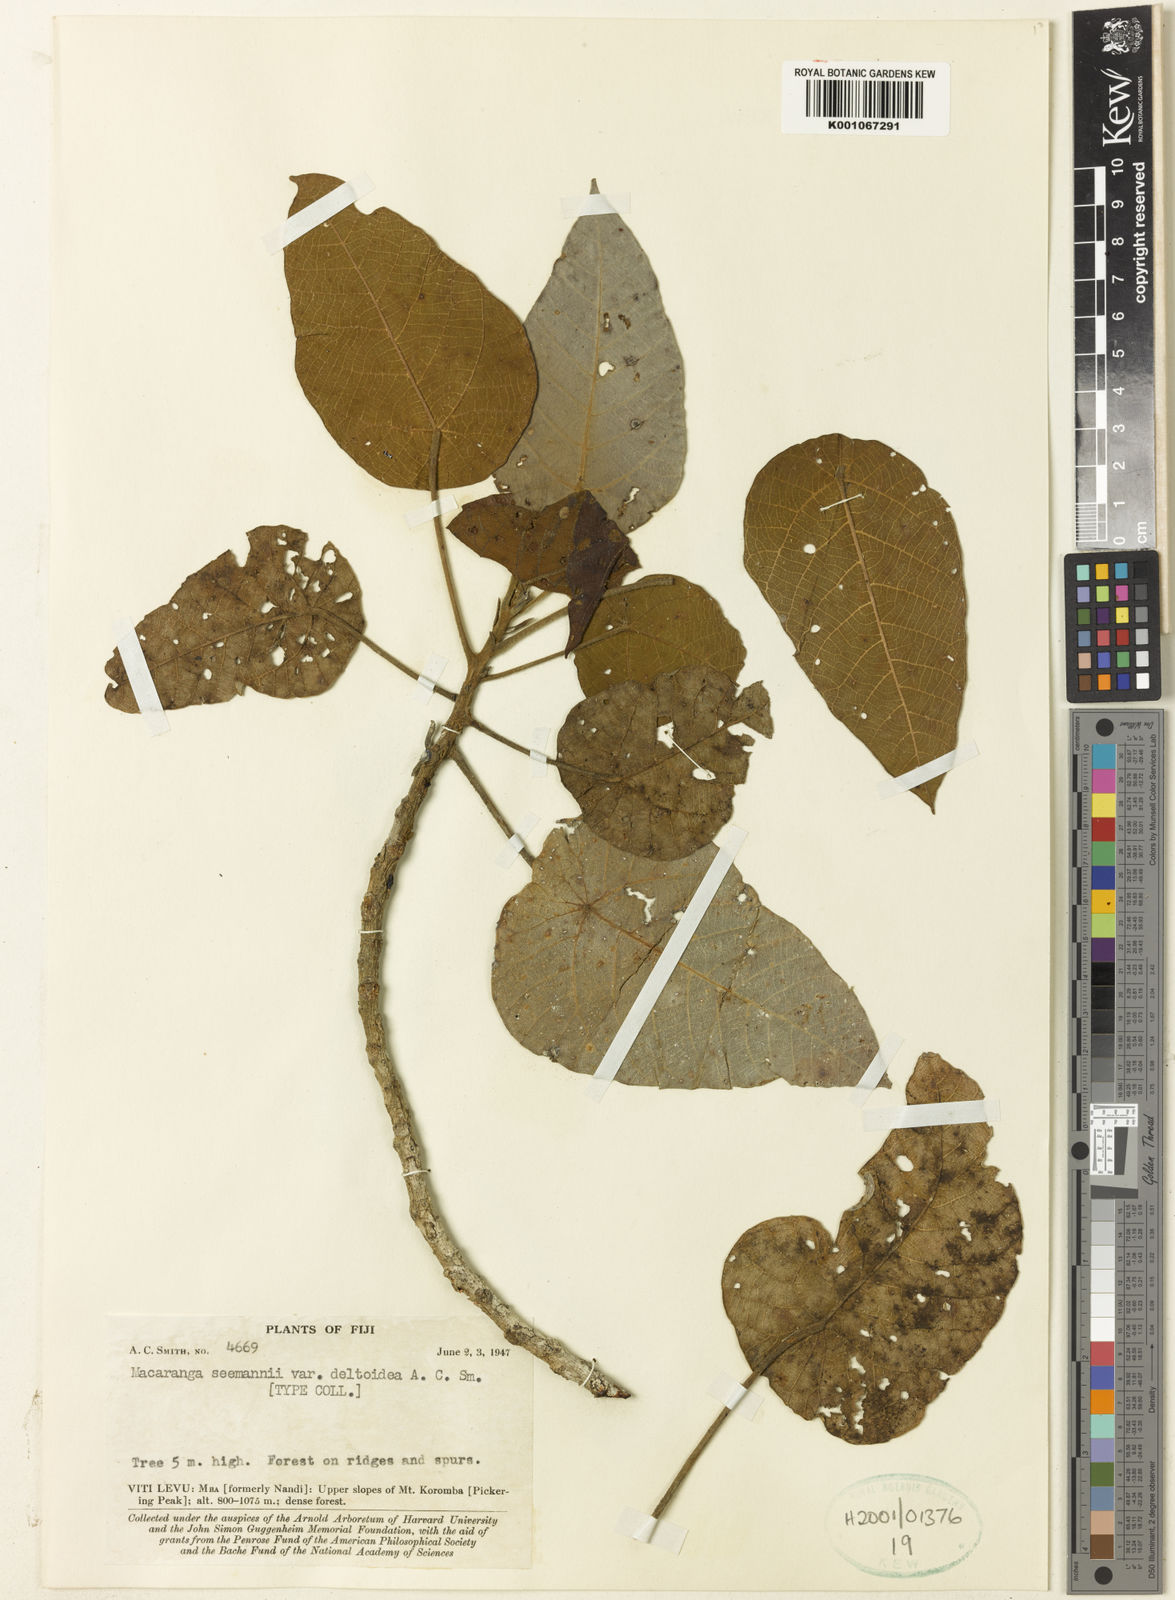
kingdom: Plantae
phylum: Tracheophyta
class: Magnoliopsida
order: Malpighiales
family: Euphorbiaceae
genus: Macaranga
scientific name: Macaranga
